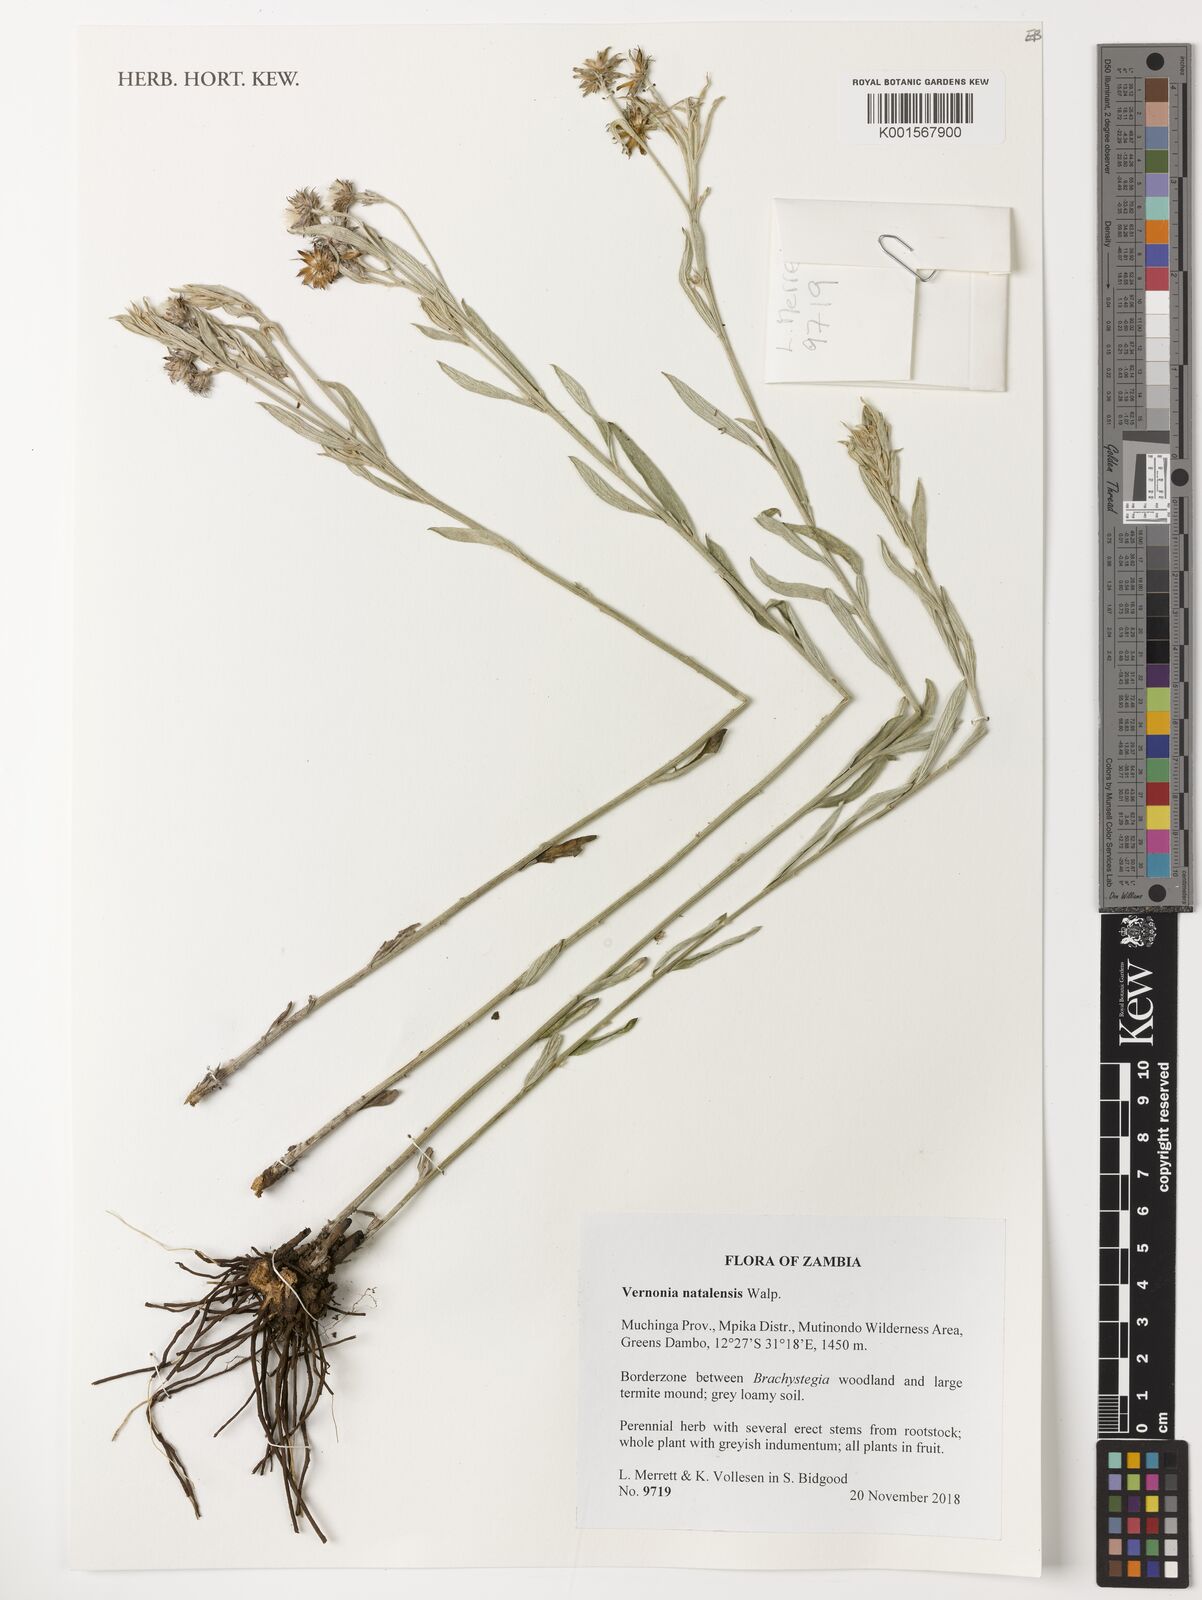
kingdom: Plantae
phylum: Tracheophyta
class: Magnoliopsida
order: Asterales
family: Asteraceae
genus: Hilliardiella
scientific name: Hilliardiella aristata
